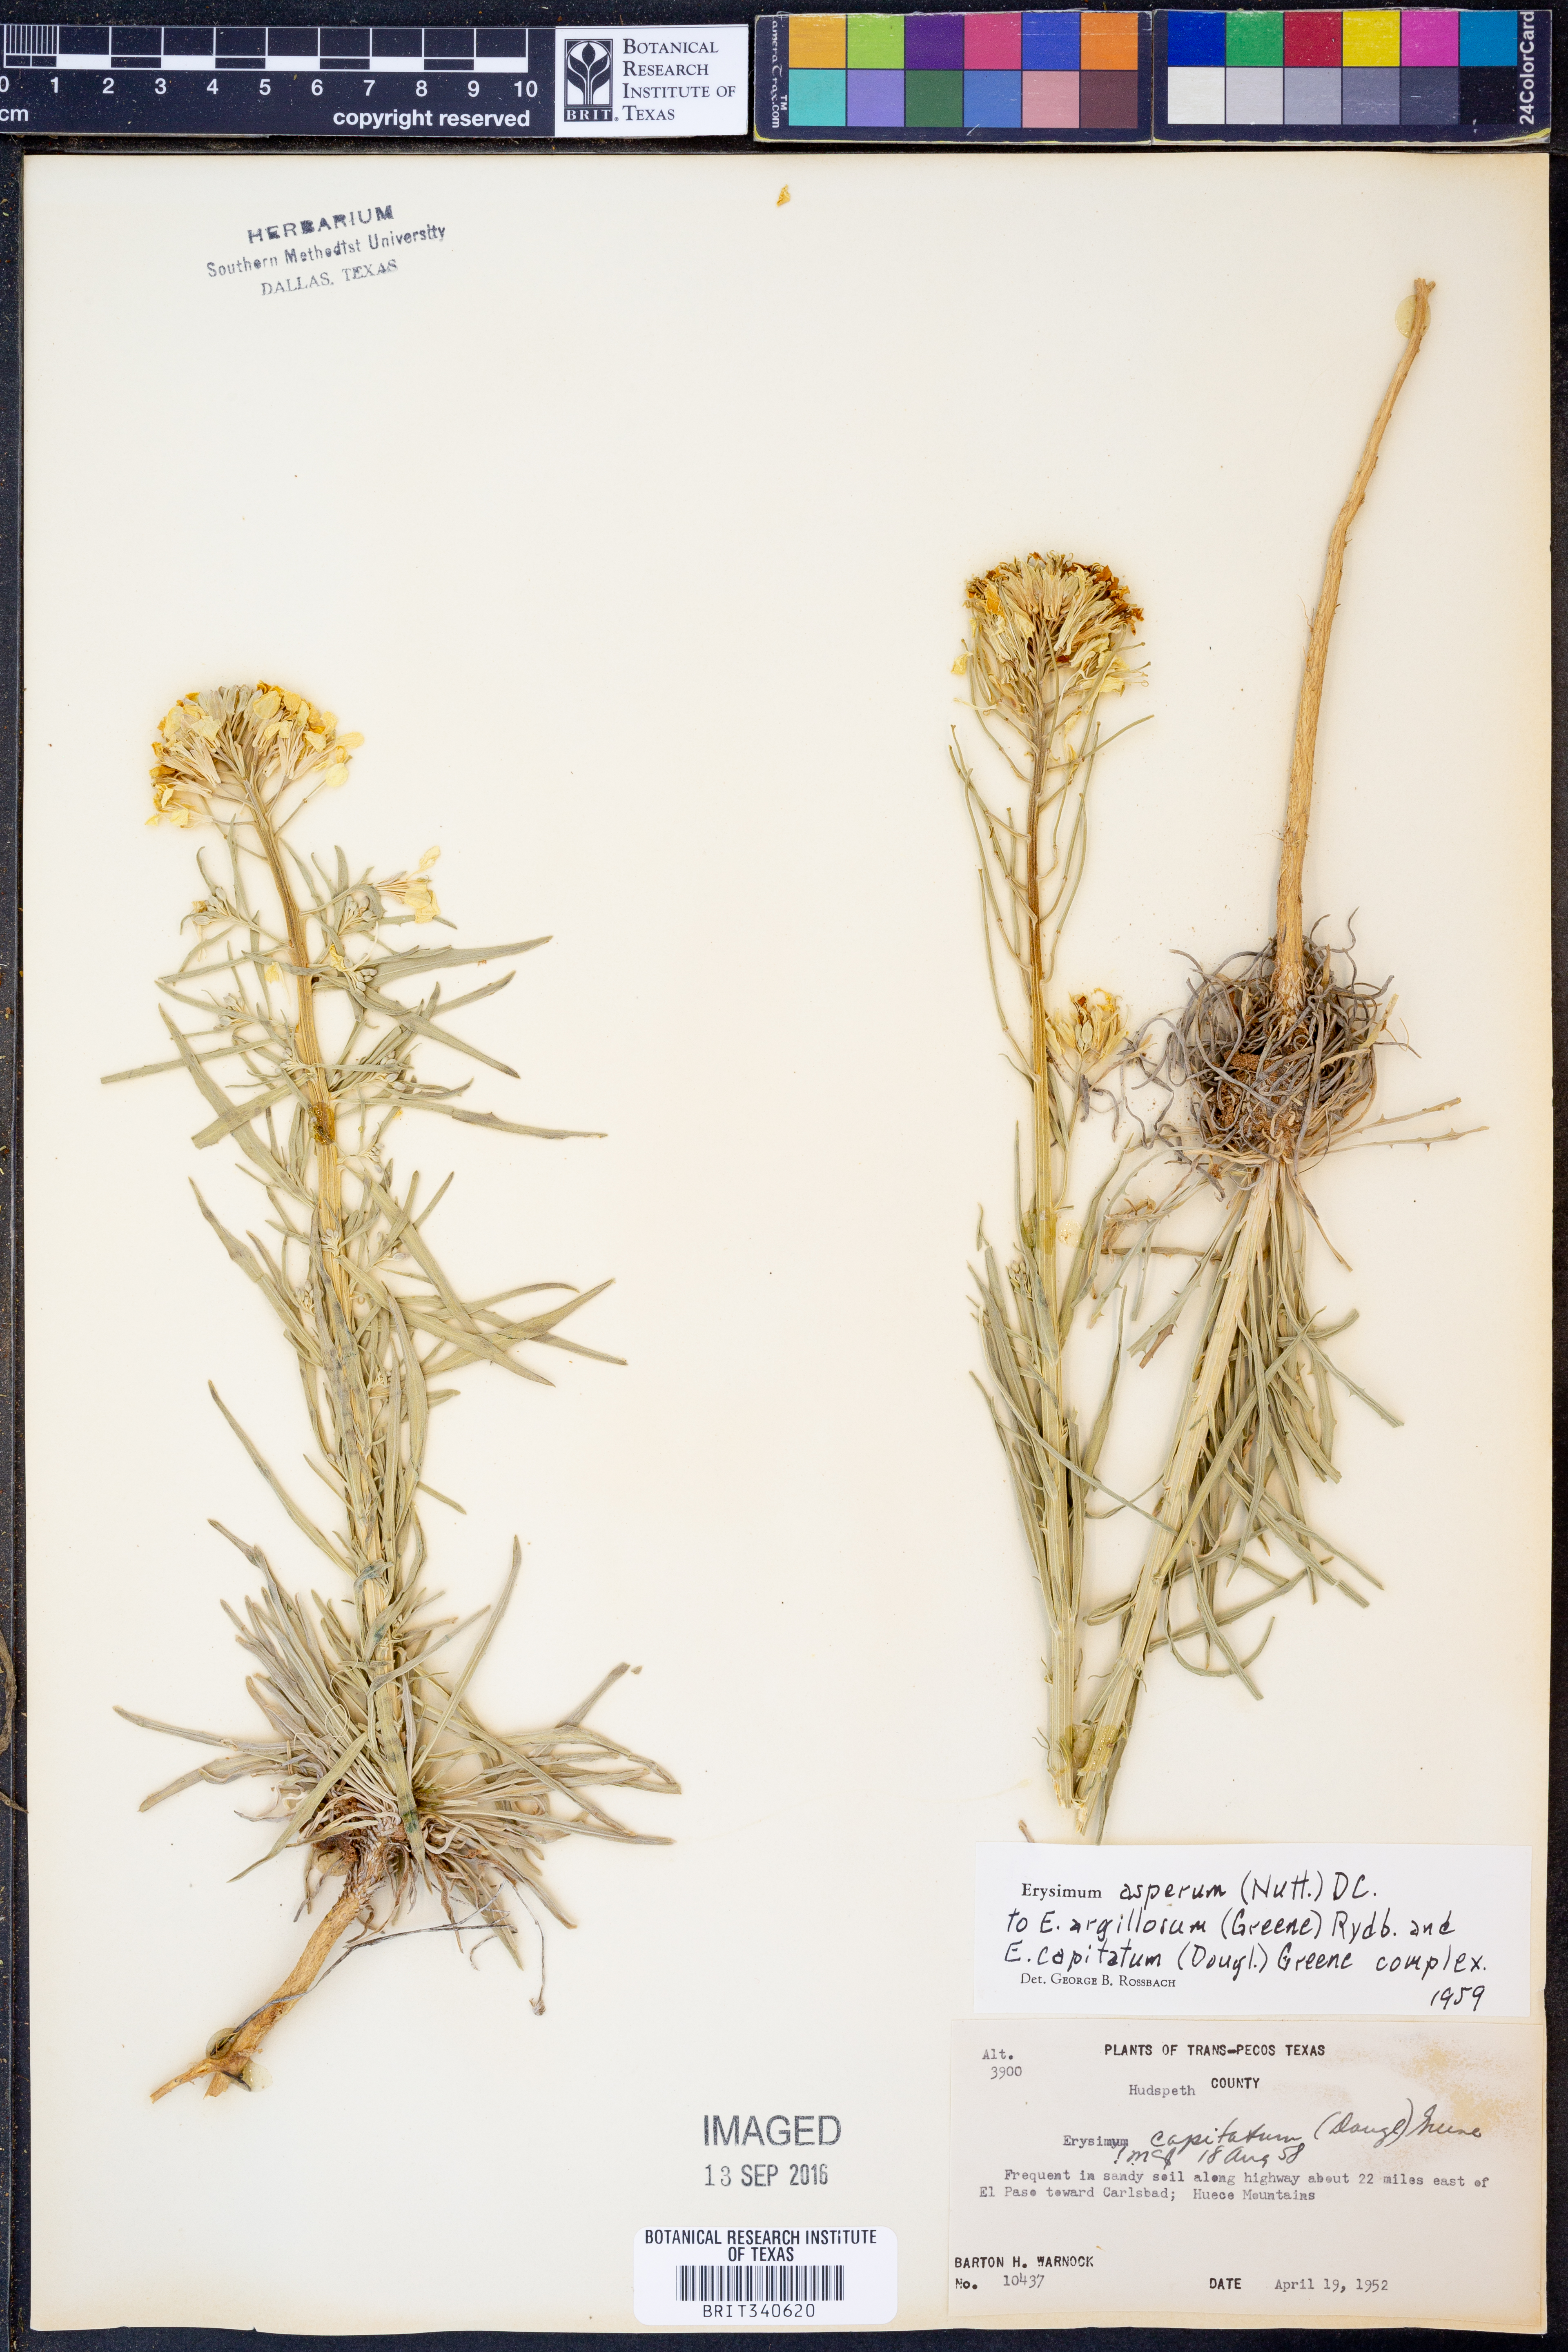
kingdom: Plantae
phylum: Tracheophyta
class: Magnoliopsida
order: Brassicales
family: Brassicaceae
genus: Erysimum
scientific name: Erysimum asperum
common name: Western wallflower
